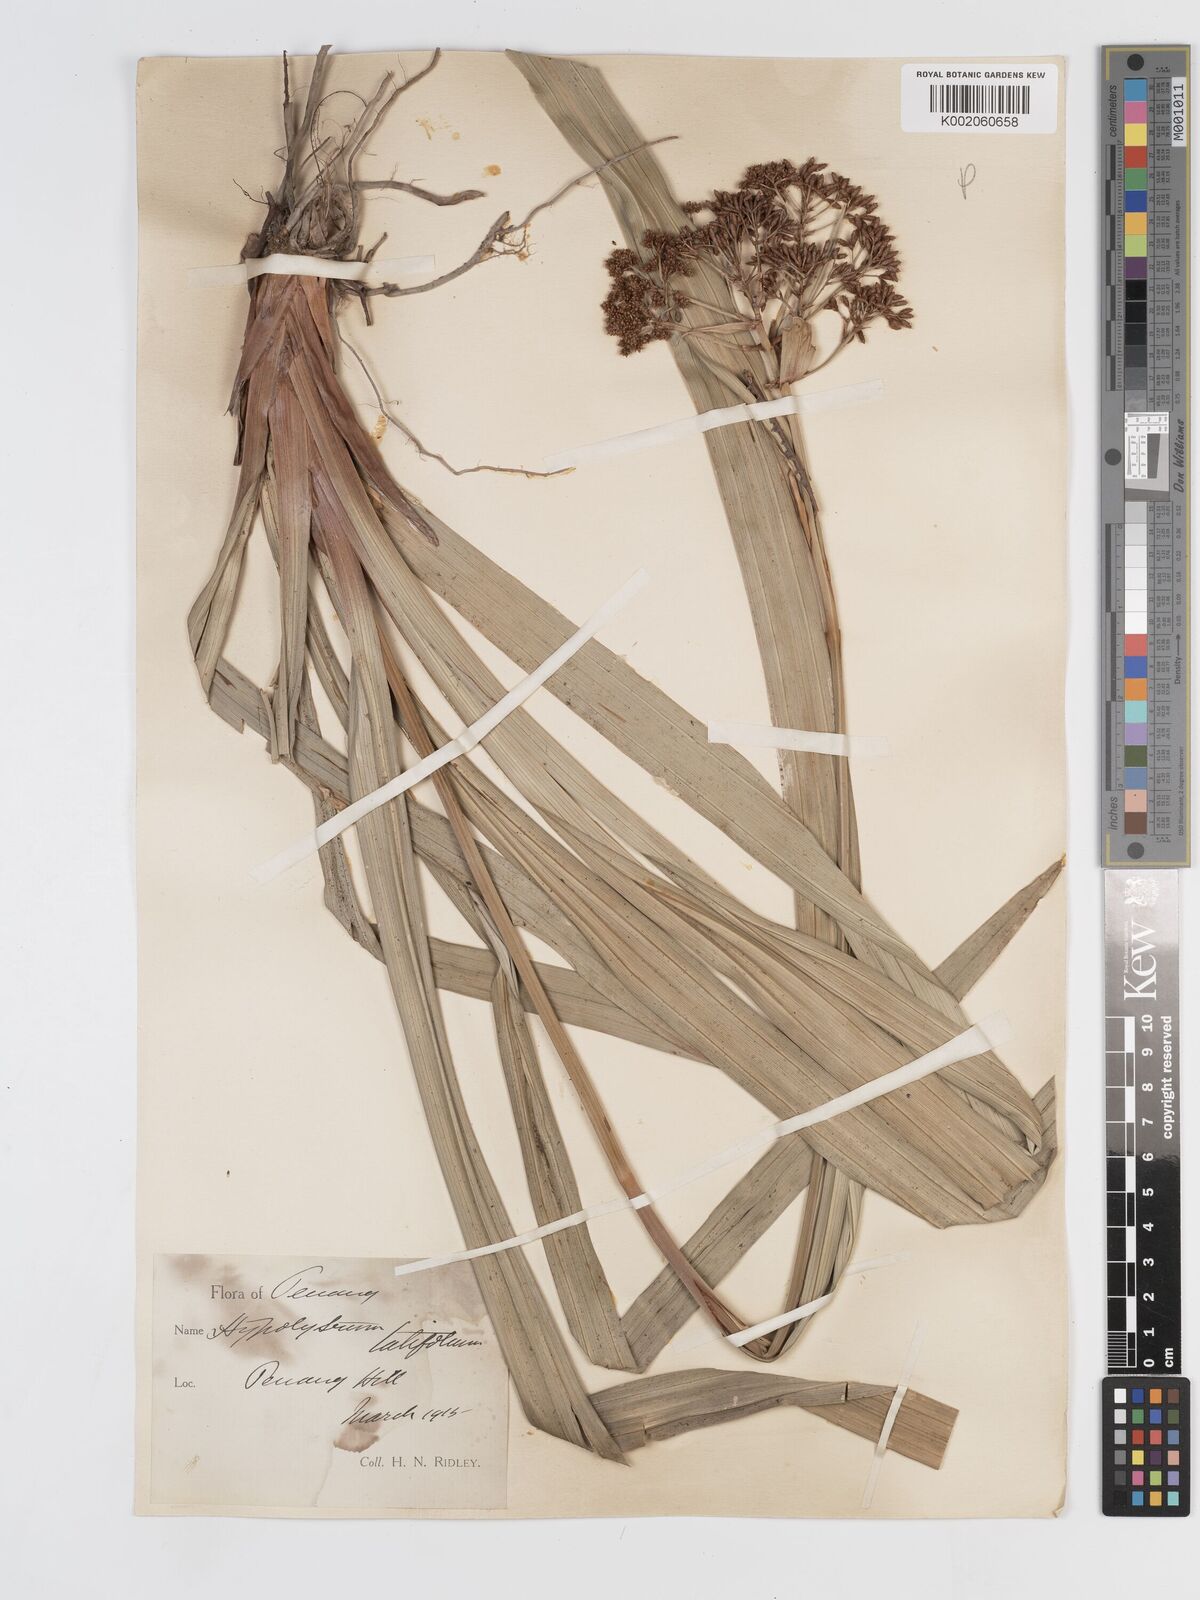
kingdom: Plantae
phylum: Tracheophyta
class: Liliopsida
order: Poales
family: Cyperaceae
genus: Hypolytrum
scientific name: Hypolytrum nemorum
